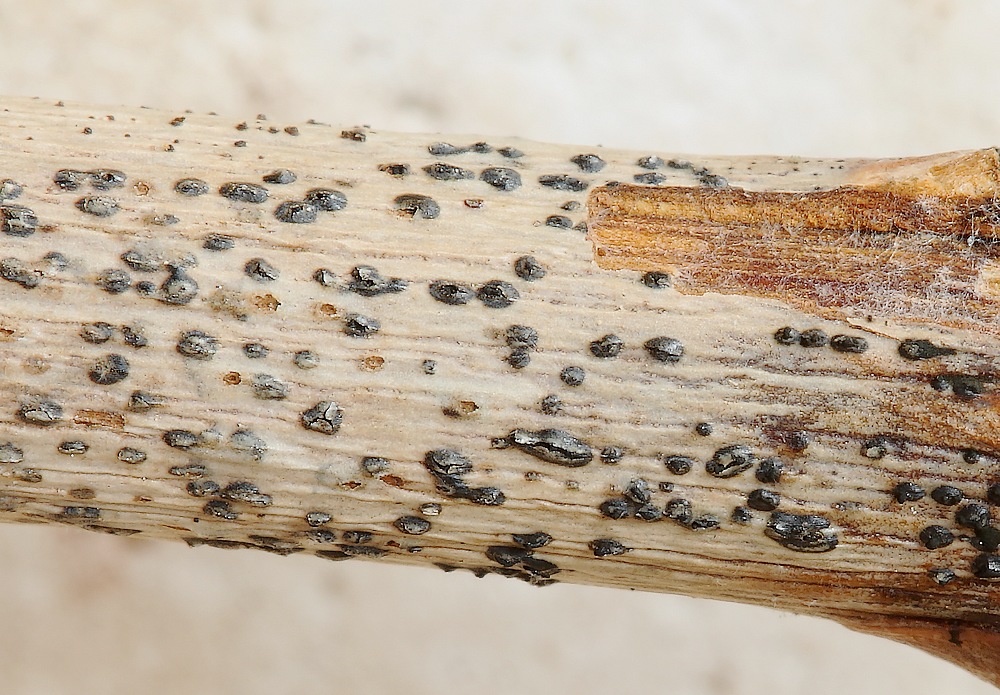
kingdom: Fungi
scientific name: Fungi
